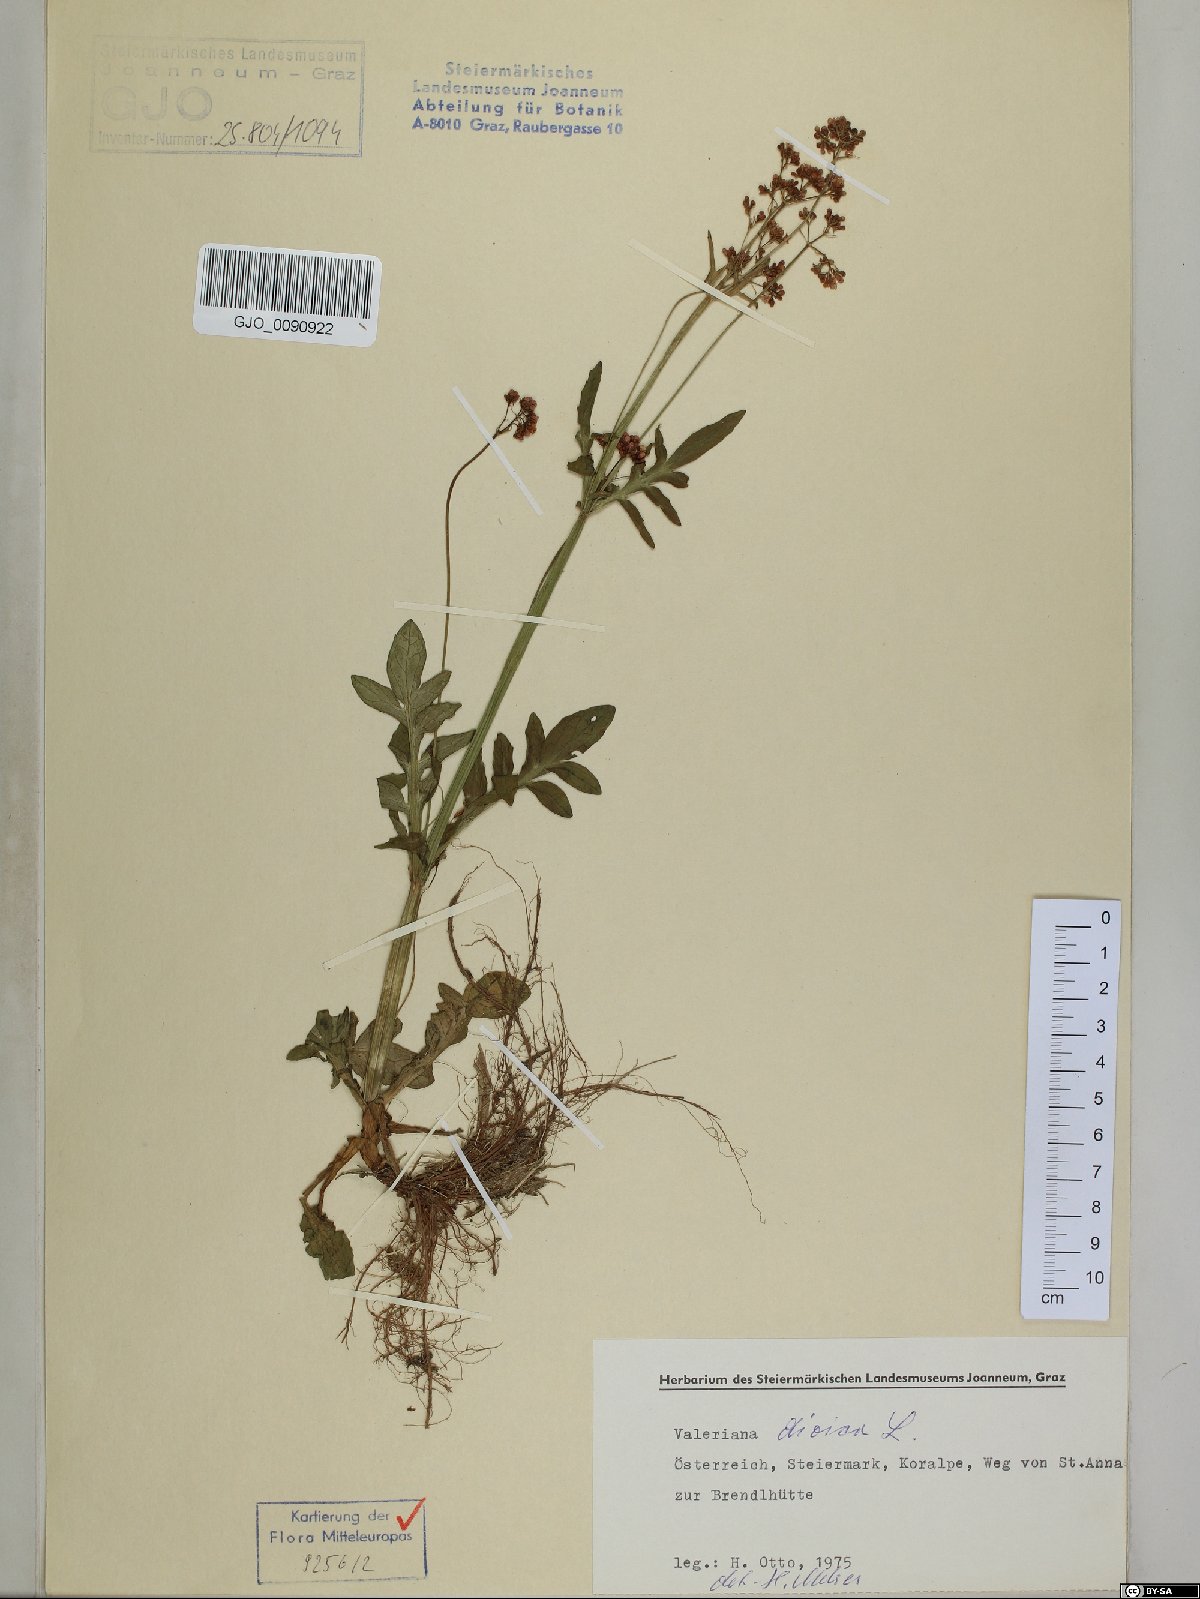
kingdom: Plantae
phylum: Tracheophyta
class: Magnoliopsida
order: Dipsacales
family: Caprifoliaceae
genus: Valeriana
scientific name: Valeriana dioica
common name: Marsh valerian
